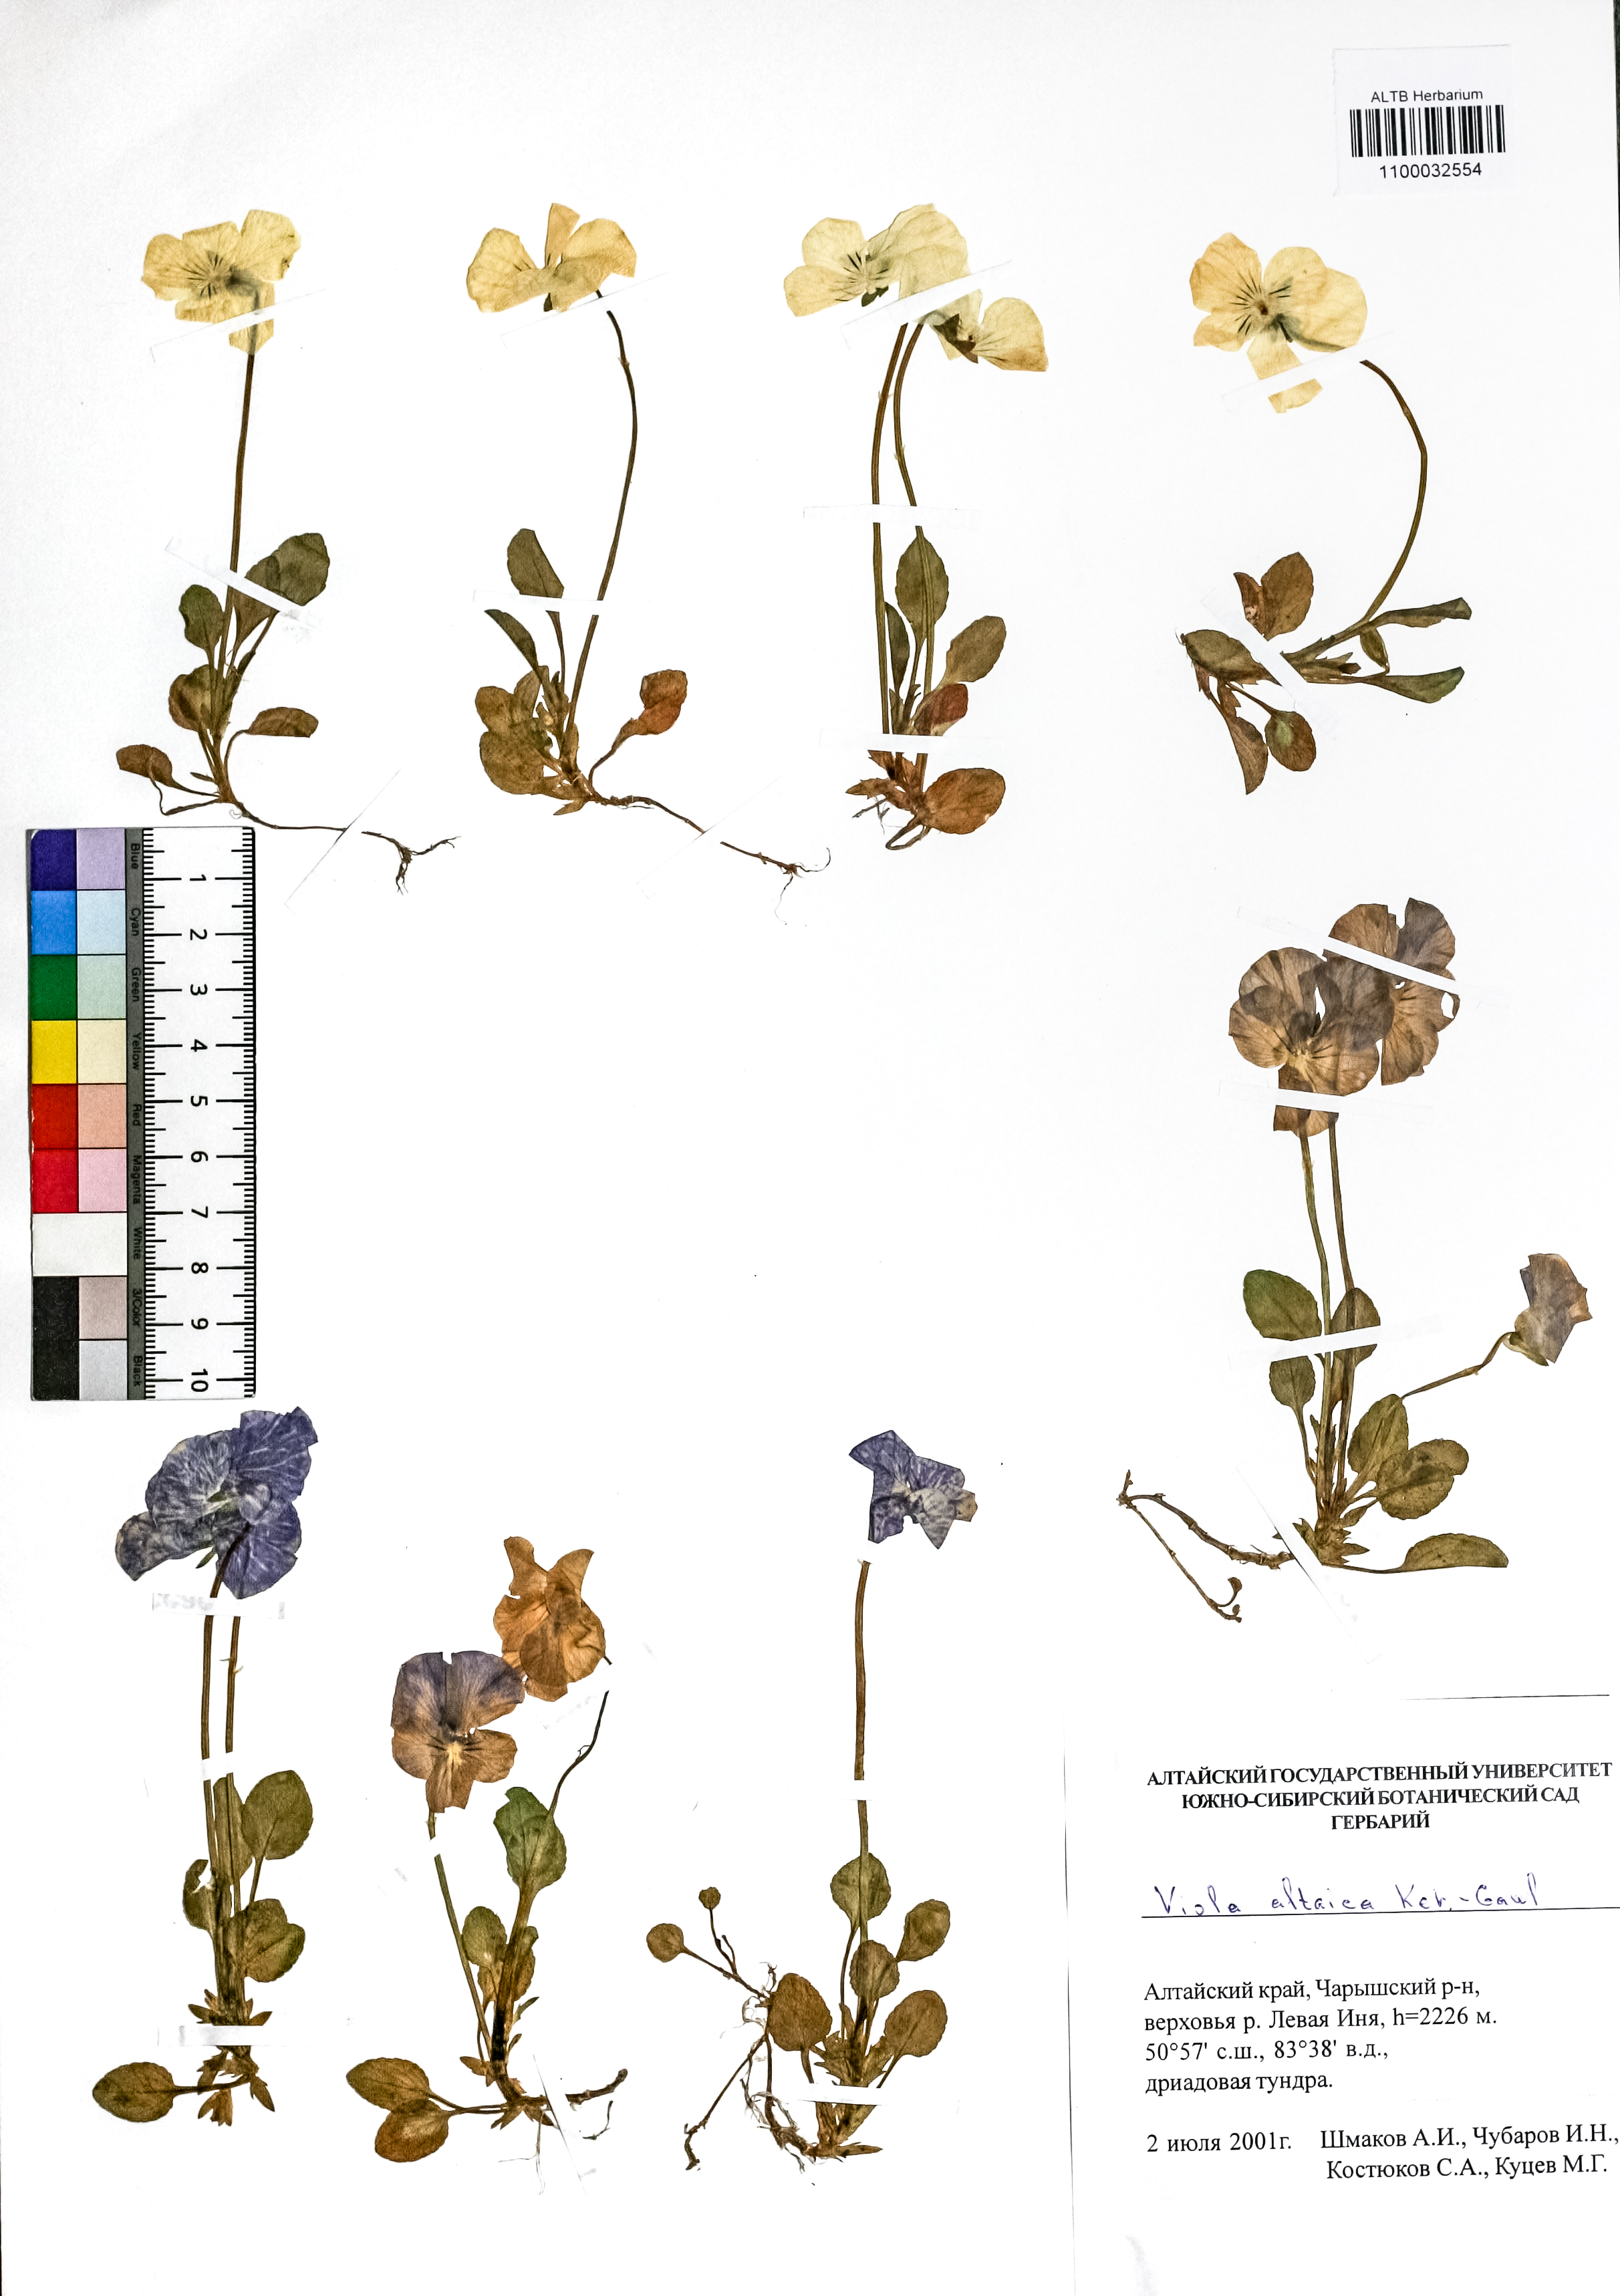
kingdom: Plantae
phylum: Tracheophyta
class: Magnoliopsida
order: Malpighiales
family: Violaceae
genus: Viola
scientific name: Viola altaica
